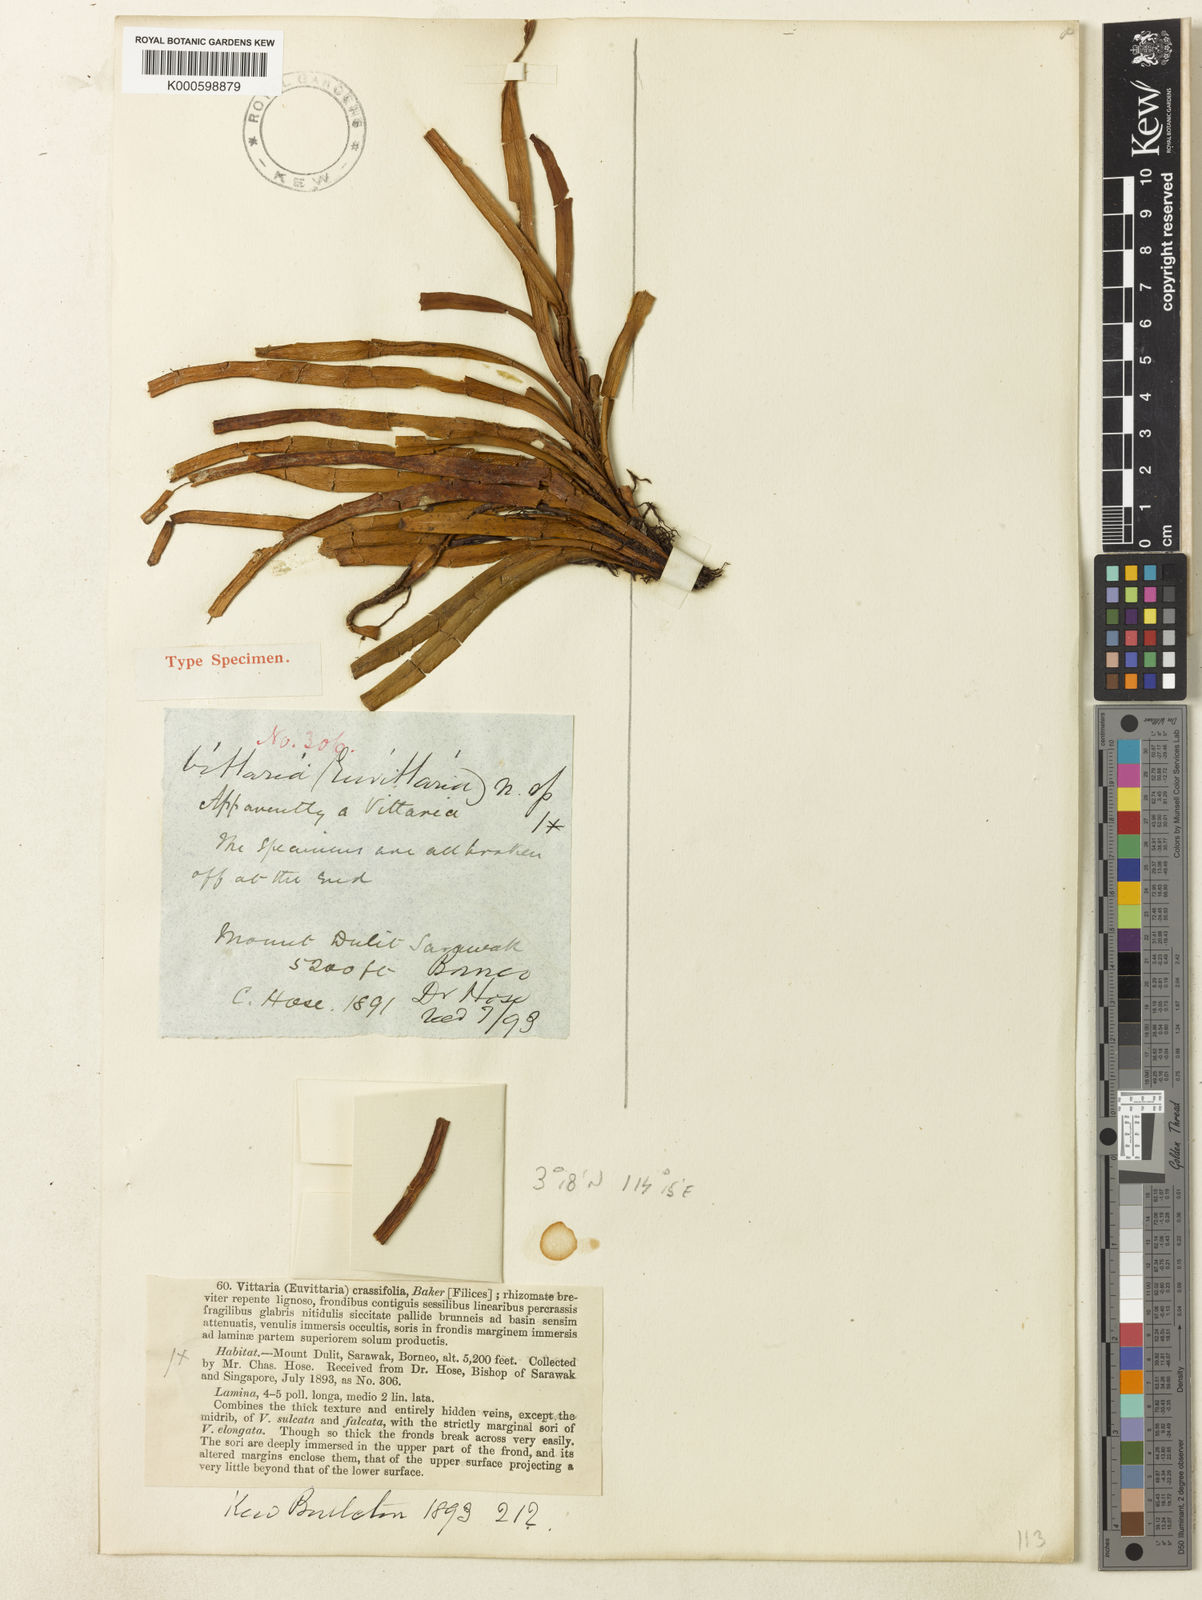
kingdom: Plantae
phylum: Tracheophyta
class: Polypodiopsida
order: Polypodiales
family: Polypodiaceae
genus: Scleroglossum
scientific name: Scleroglossum crassifolium
